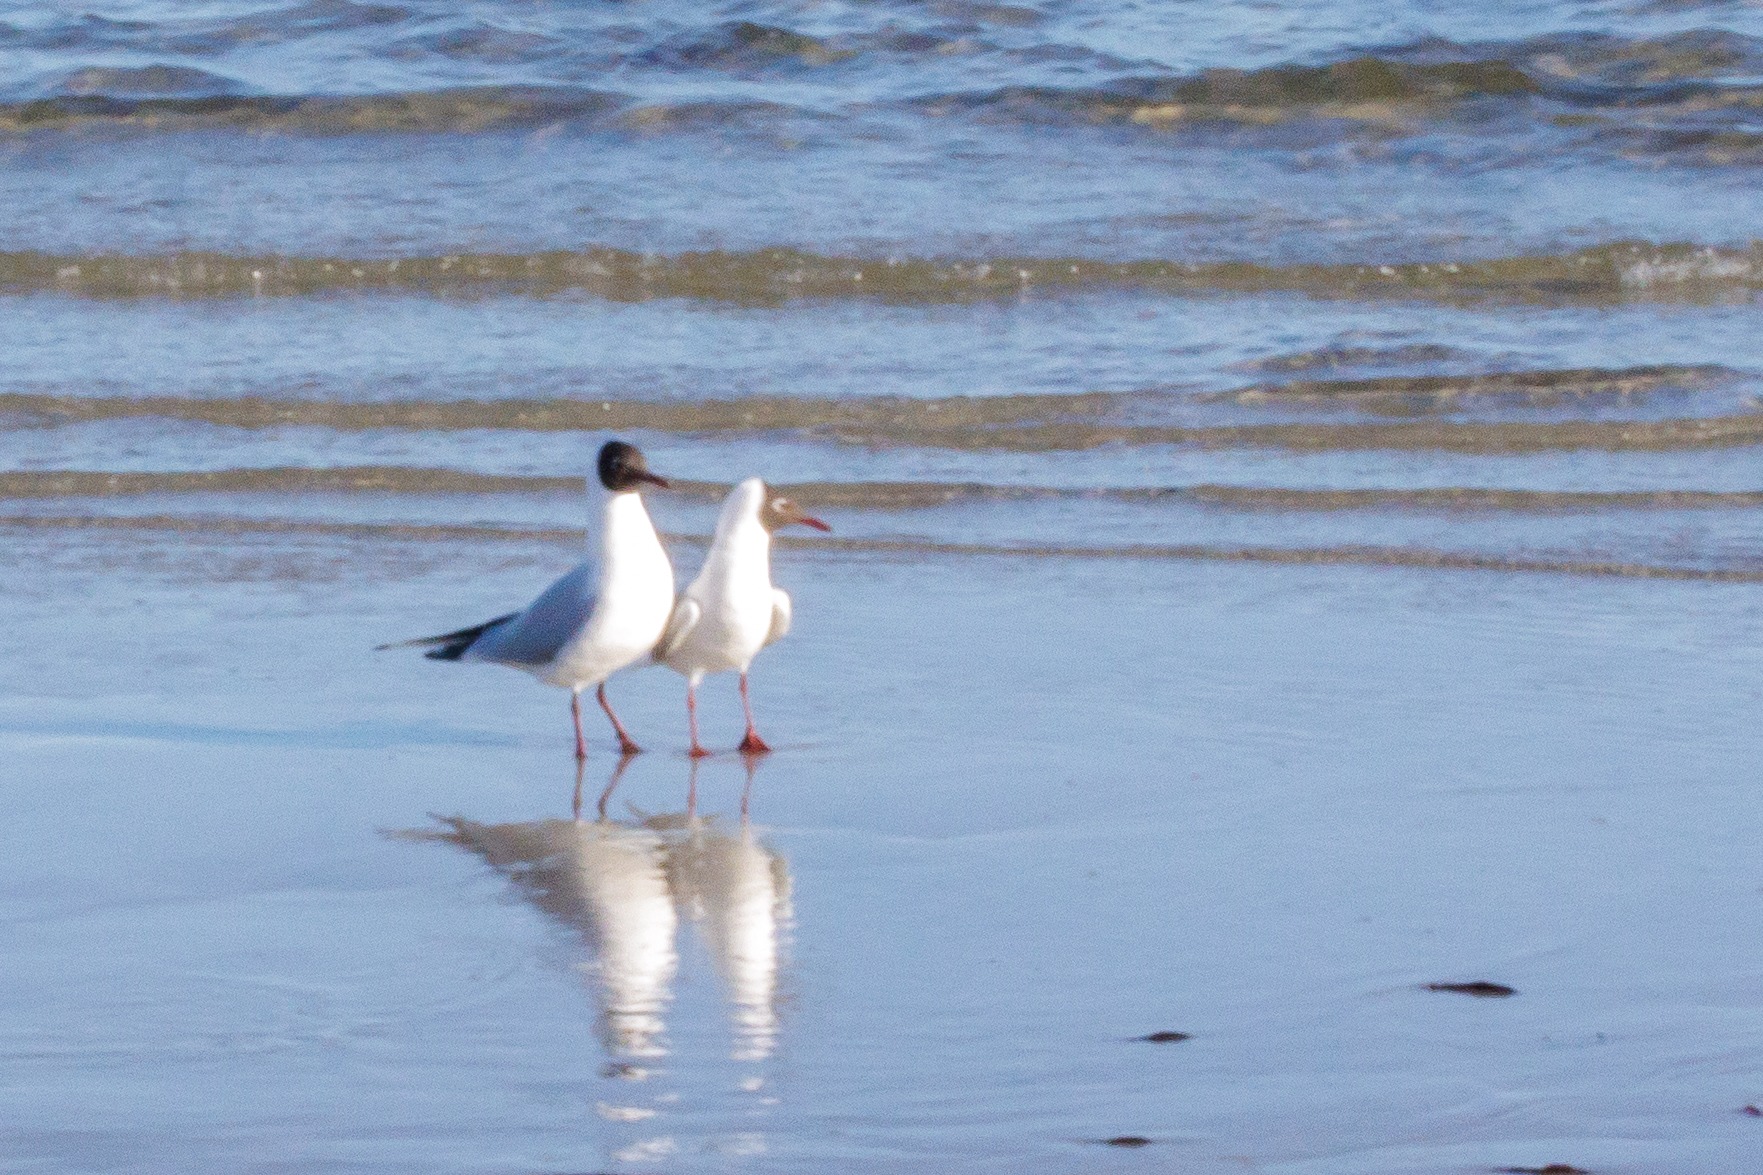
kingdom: Animalia
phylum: Chordata
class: Aves
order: Charadriiformes
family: Laridae
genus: Chroicocephalus
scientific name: Chroicocephalus ridibundus
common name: Hættemåge
